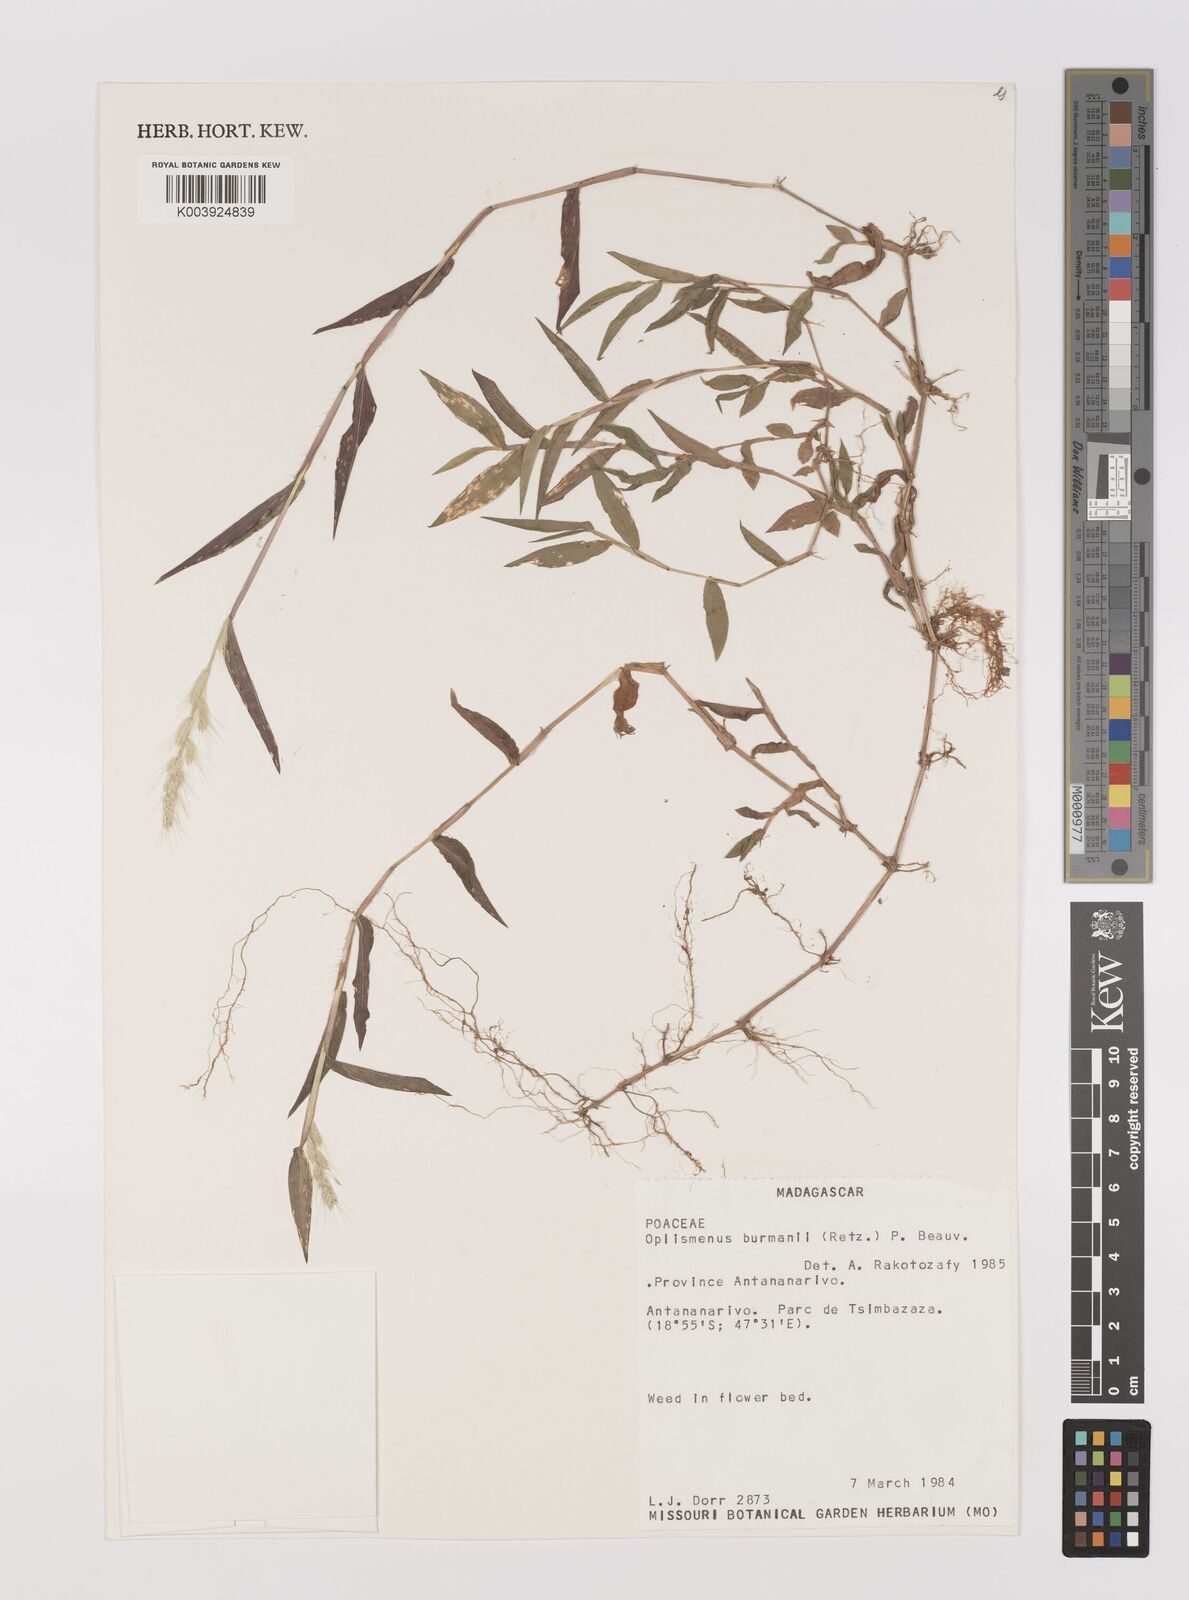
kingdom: Plantae
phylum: Tracheophyta
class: Liliopsida
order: Poales
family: Poaceae
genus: Oplismenus
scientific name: Oplismenus burmanni
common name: Burmann's basketgrass
